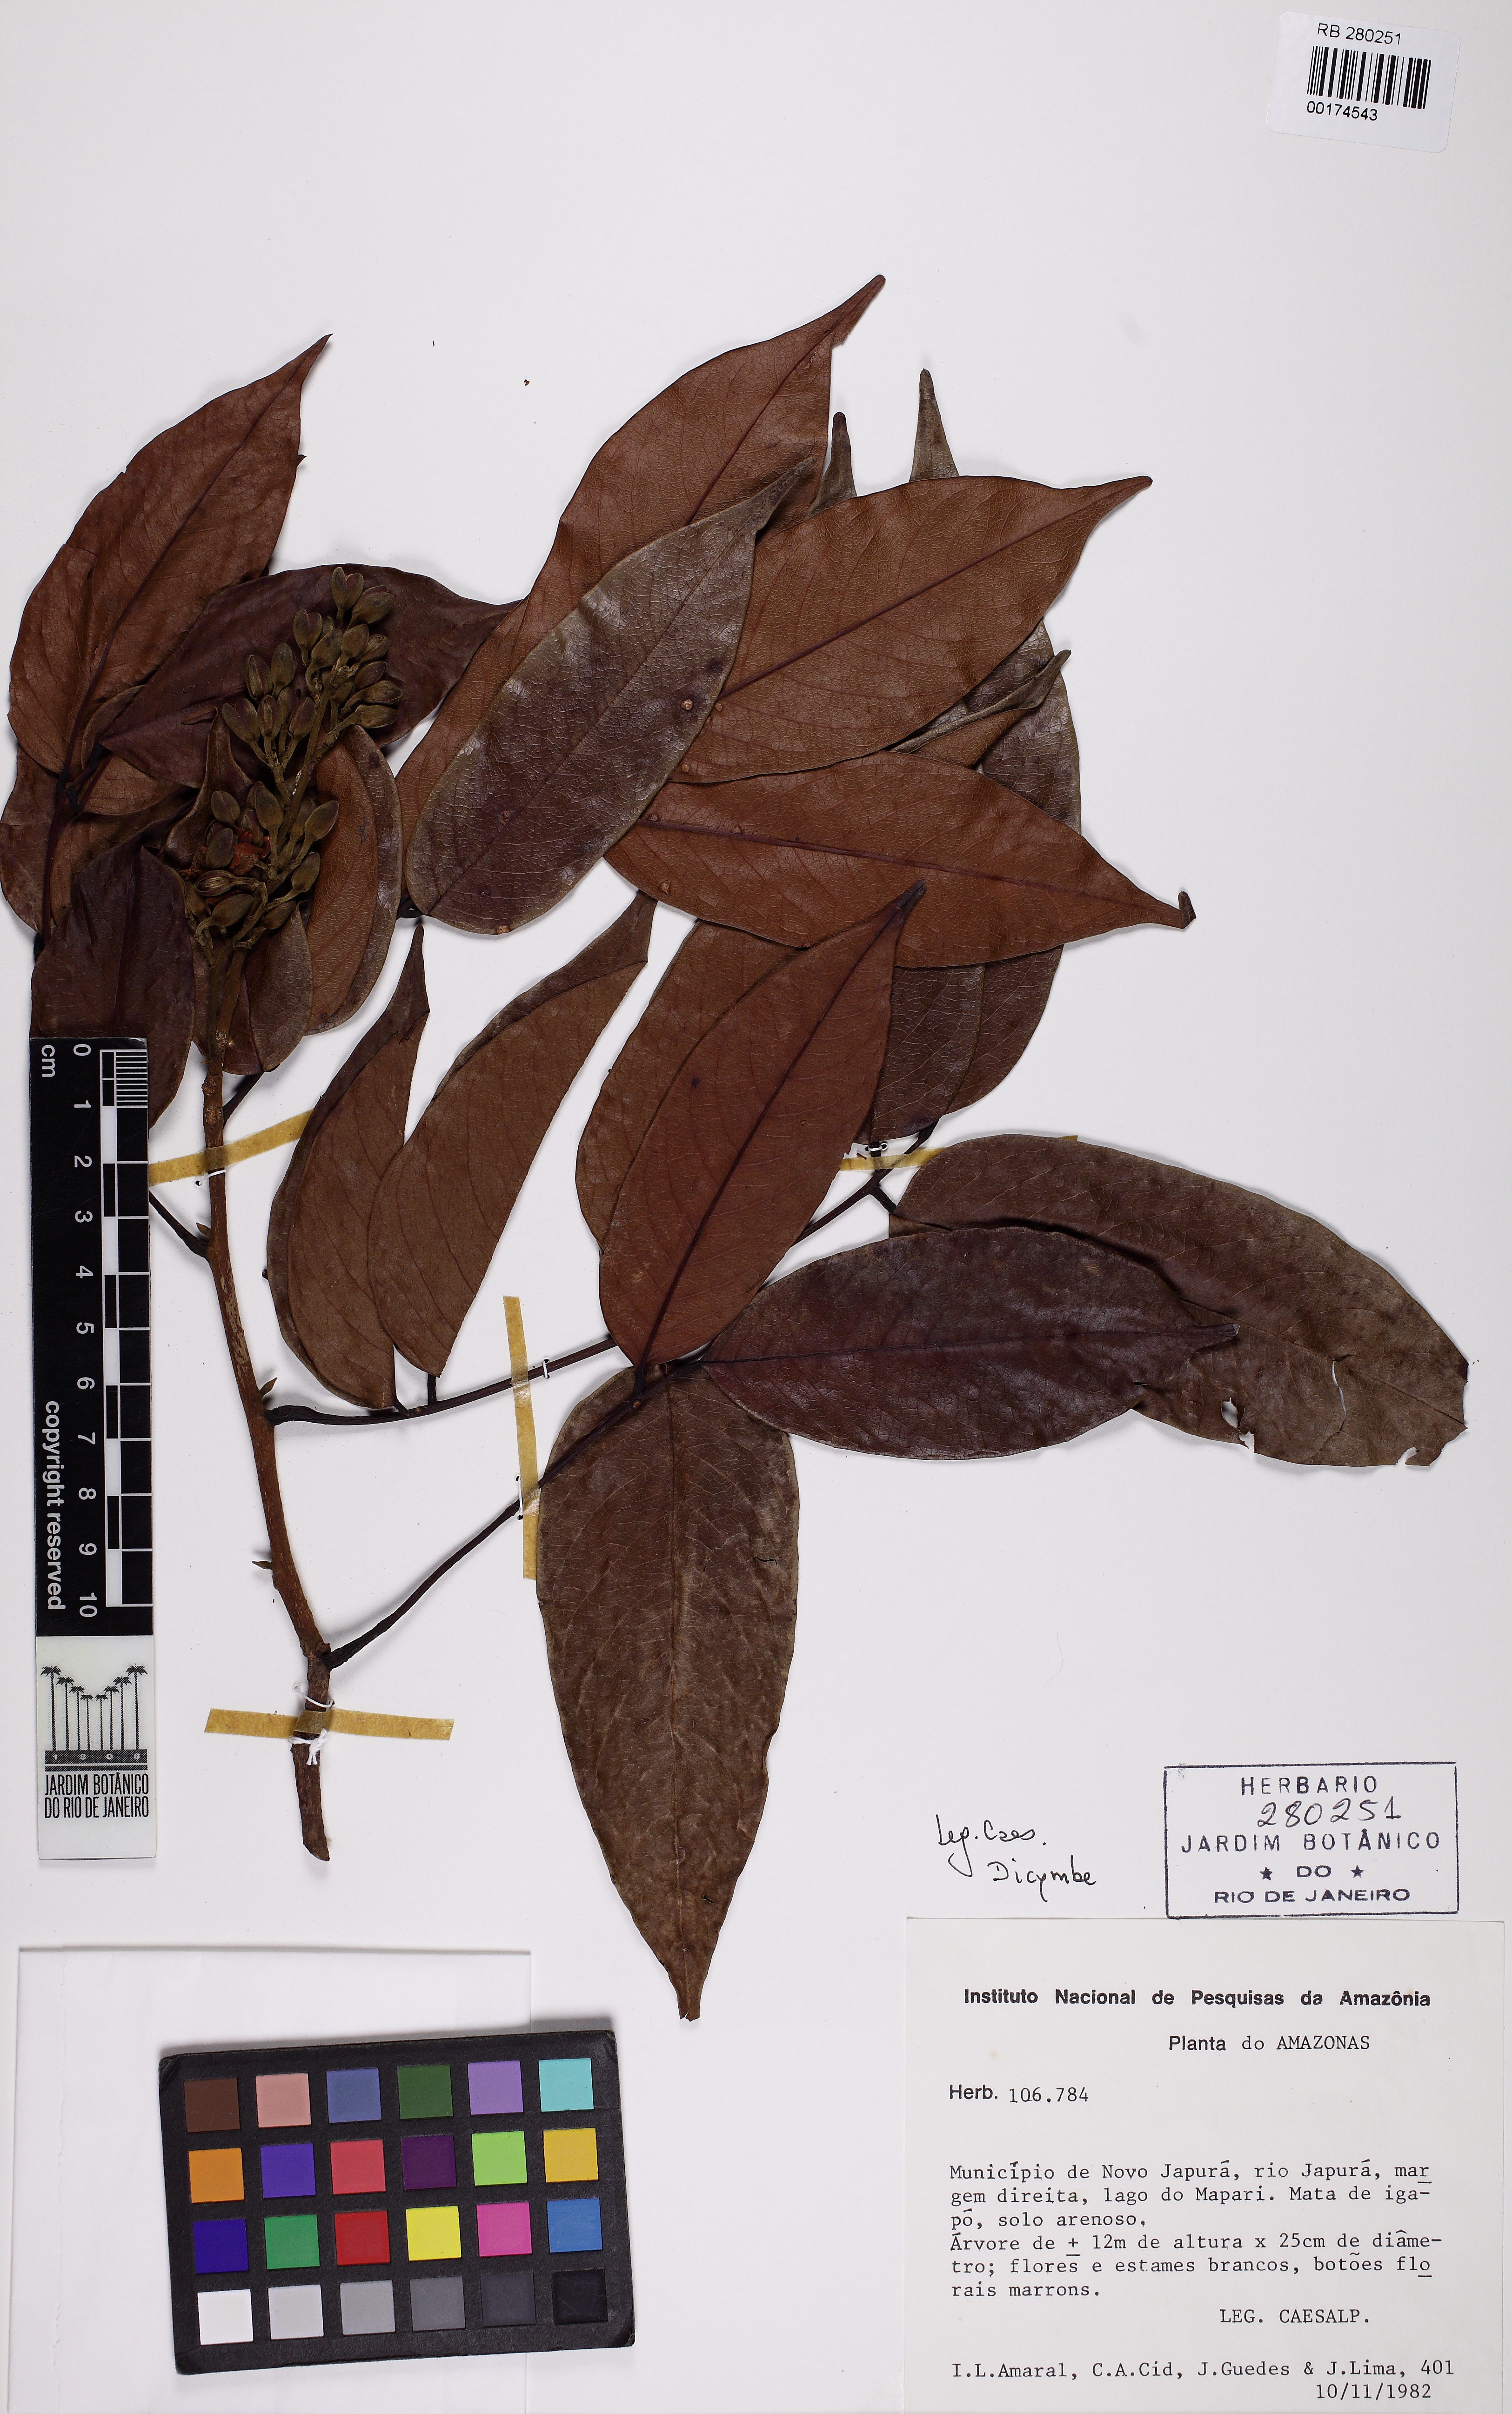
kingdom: Plantae
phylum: Tracheophyta
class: Magnoliopsida
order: Fabales
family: Fabaceae
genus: Dicorynia
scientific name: Dicorynia paraensis
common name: Angelique
